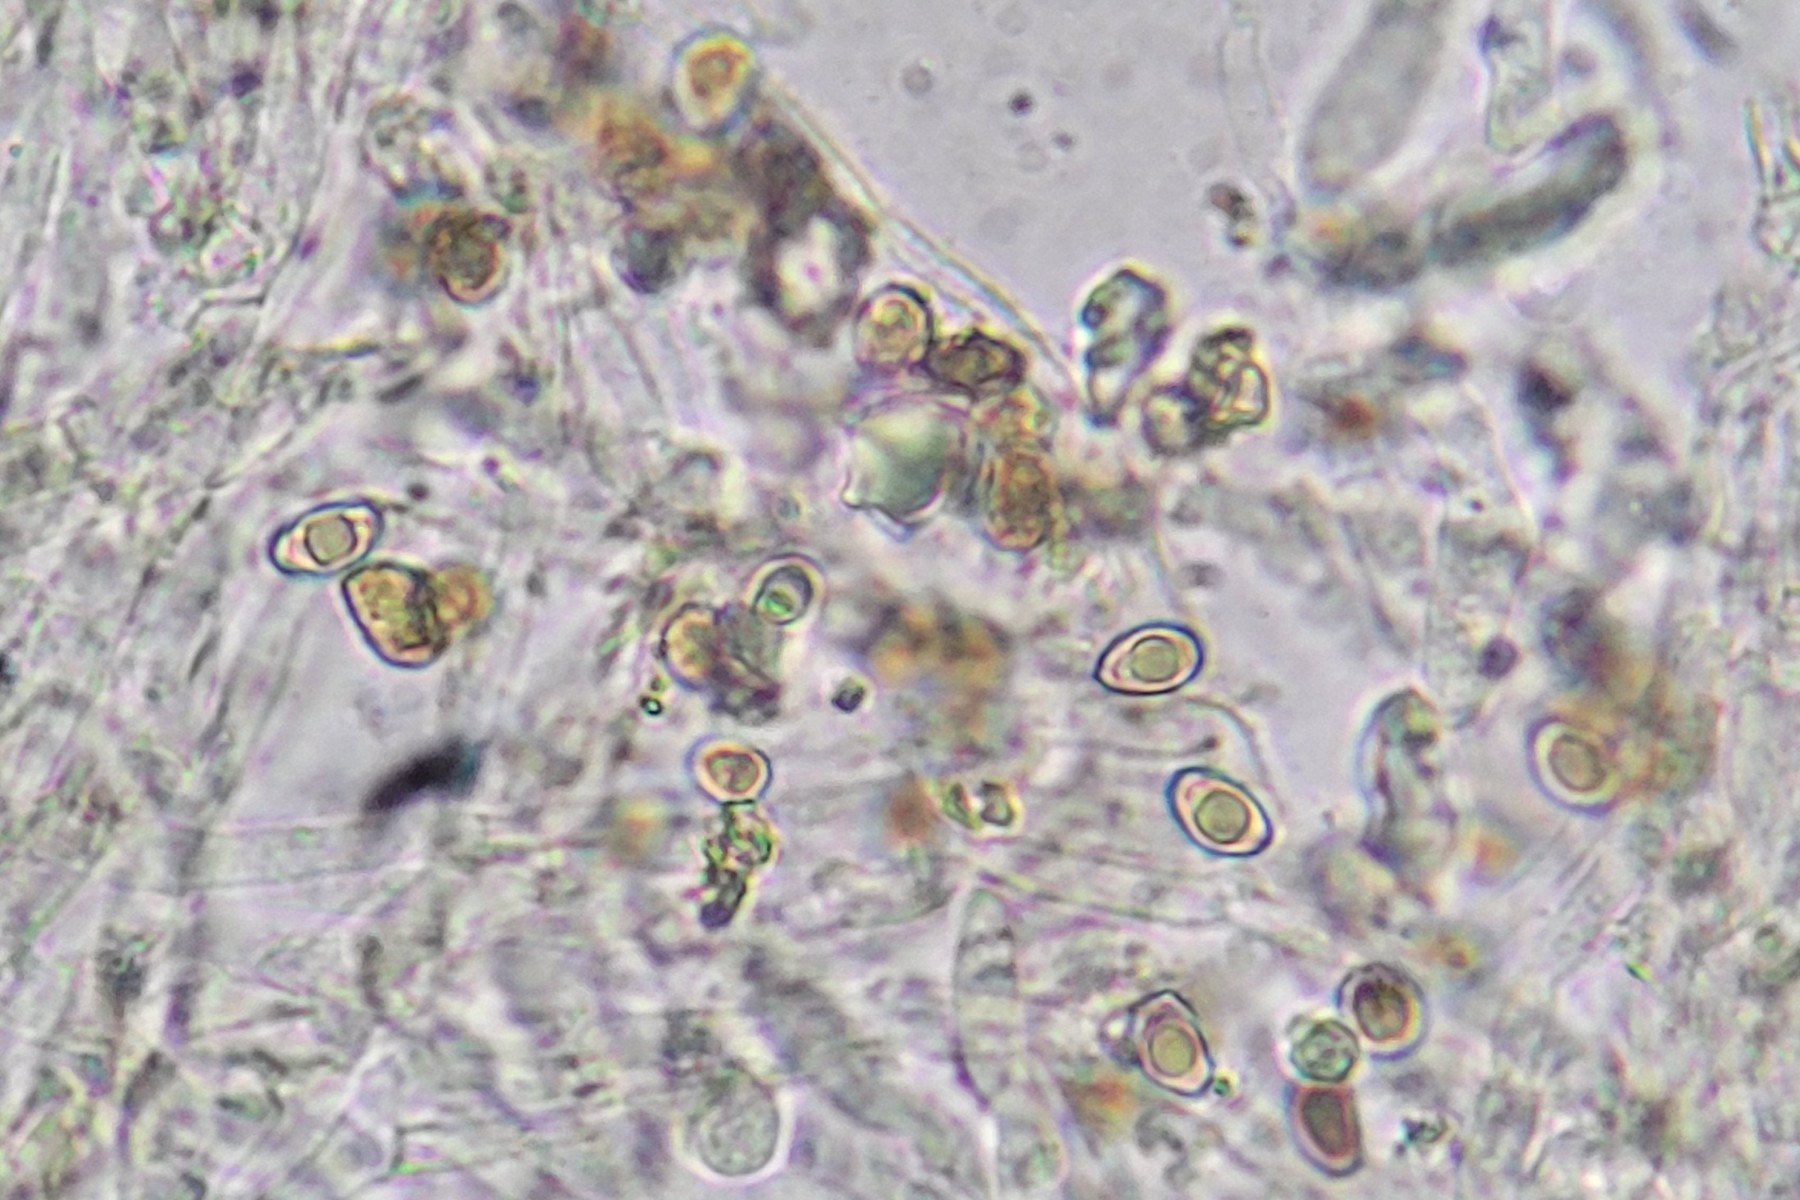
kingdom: Fungi
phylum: Basidiomycota
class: Agaricomycetes
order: Agaricales
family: Cortinariaceae
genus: Cortinarius
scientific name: Cortinarius
